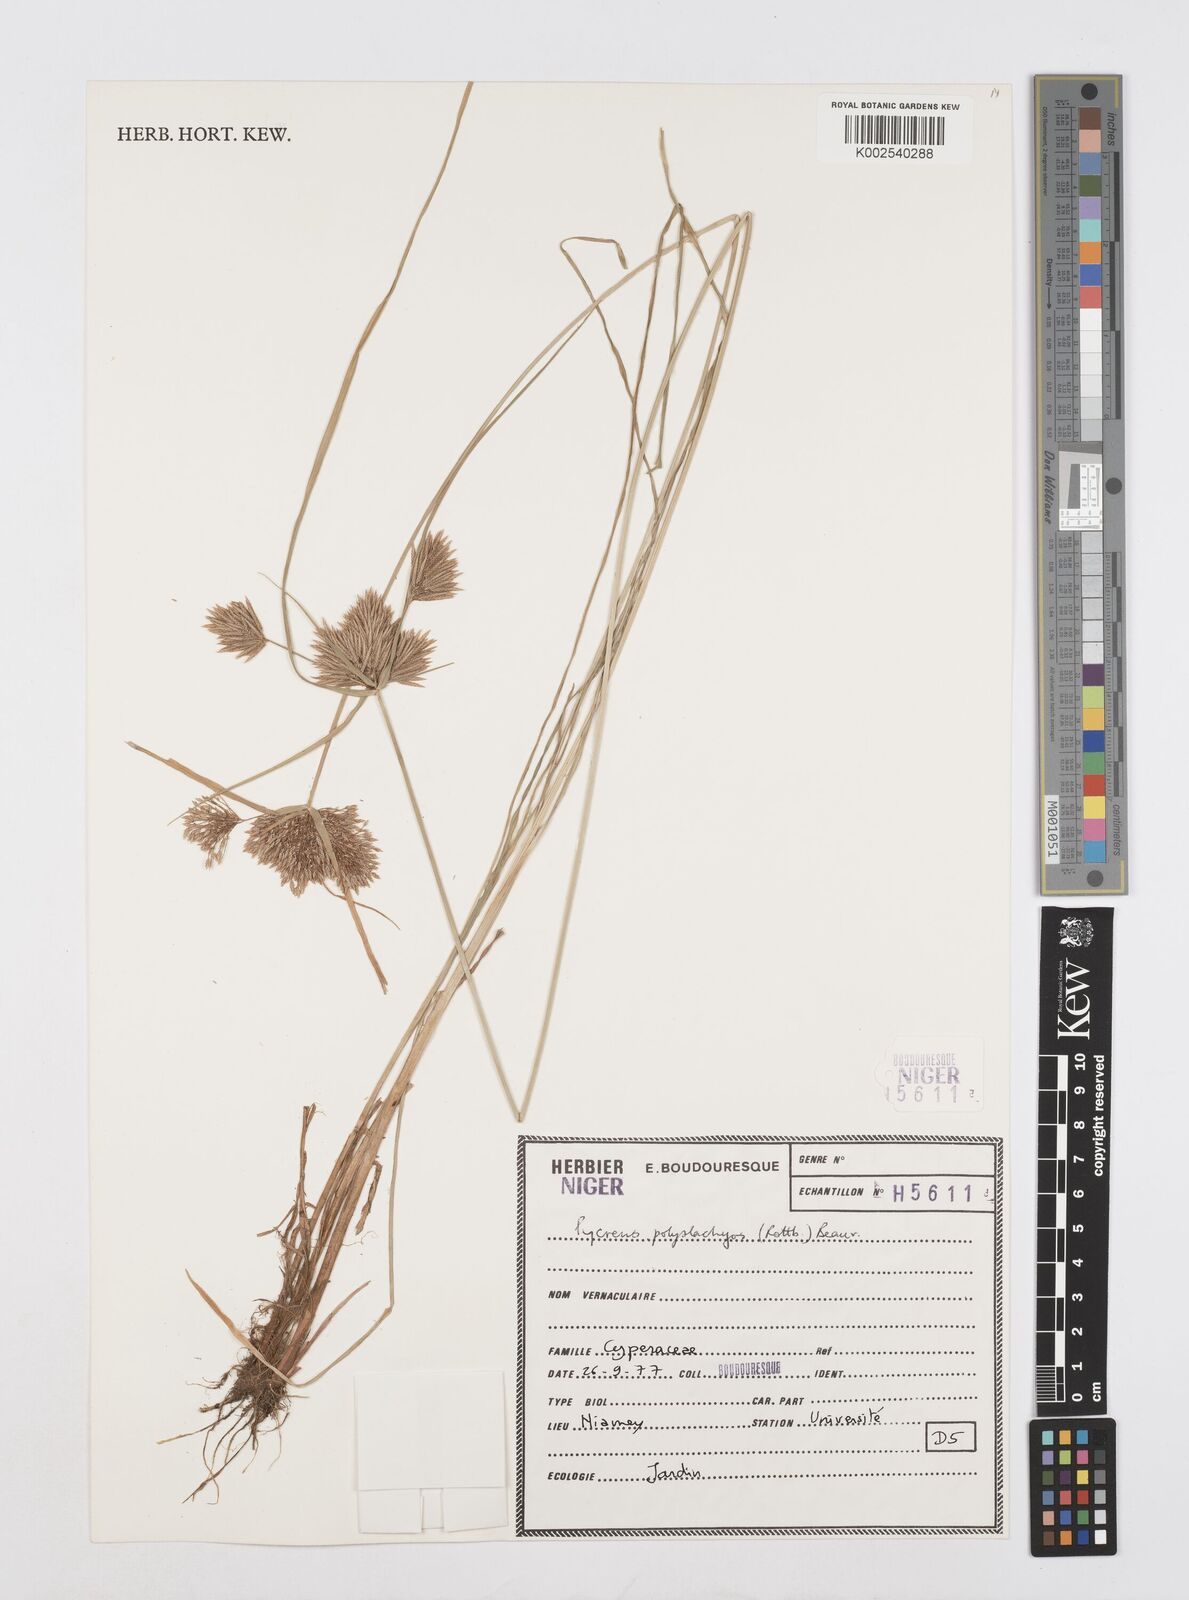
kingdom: Plantae
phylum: Tracheophyta
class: Liliopsida
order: Poales
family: Cyperaceae
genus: Cyperus
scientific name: Cyperus polystachyos
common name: Bunchy flat sedge
